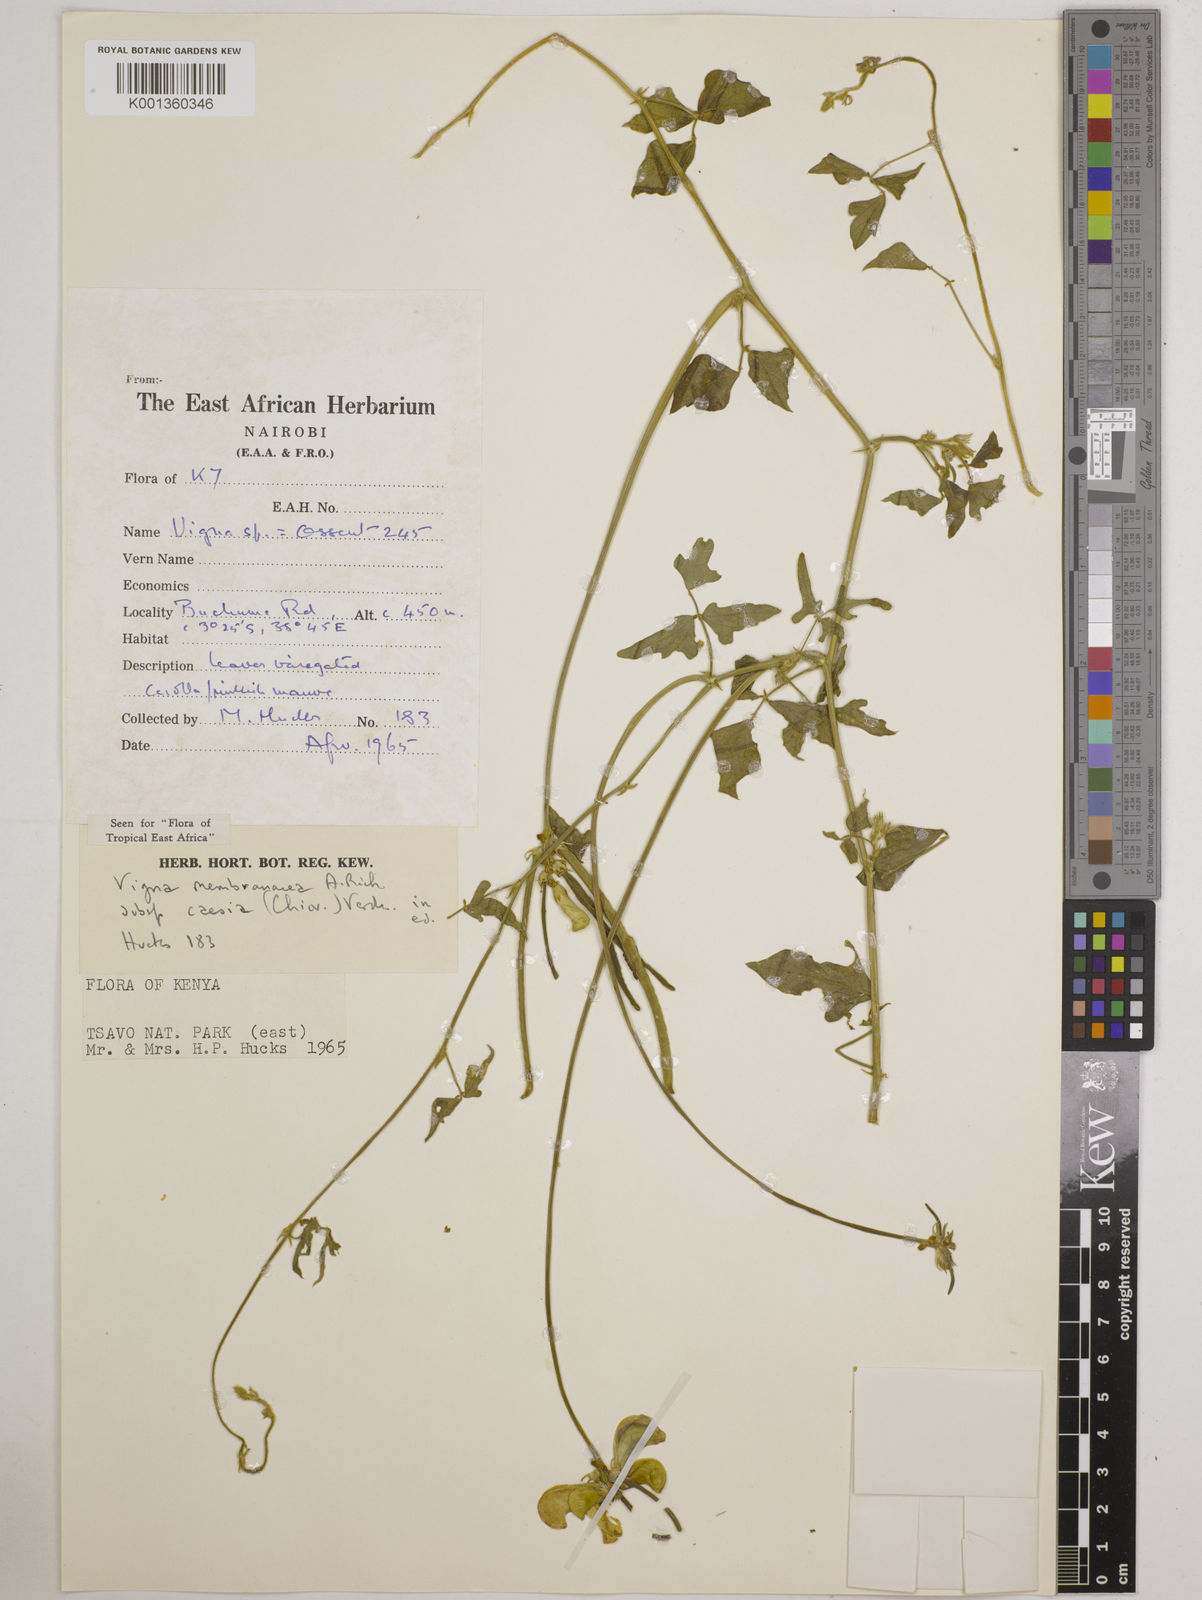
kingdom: Plantae
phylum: Tracheophyta
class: Magnoliopsida
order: Fabales
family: Fabaceae
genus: Vigna
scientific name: Vigna
